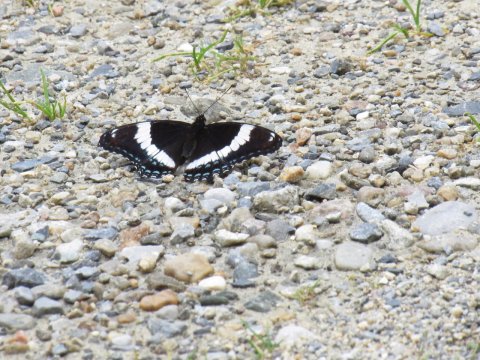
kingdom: Animalia
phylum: Arthropoda
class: Insecta
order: Lepidoptera
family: Nymphalidae
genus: Limenitis
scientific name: Limenitis arthemis
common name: Red-spotted Admiral
